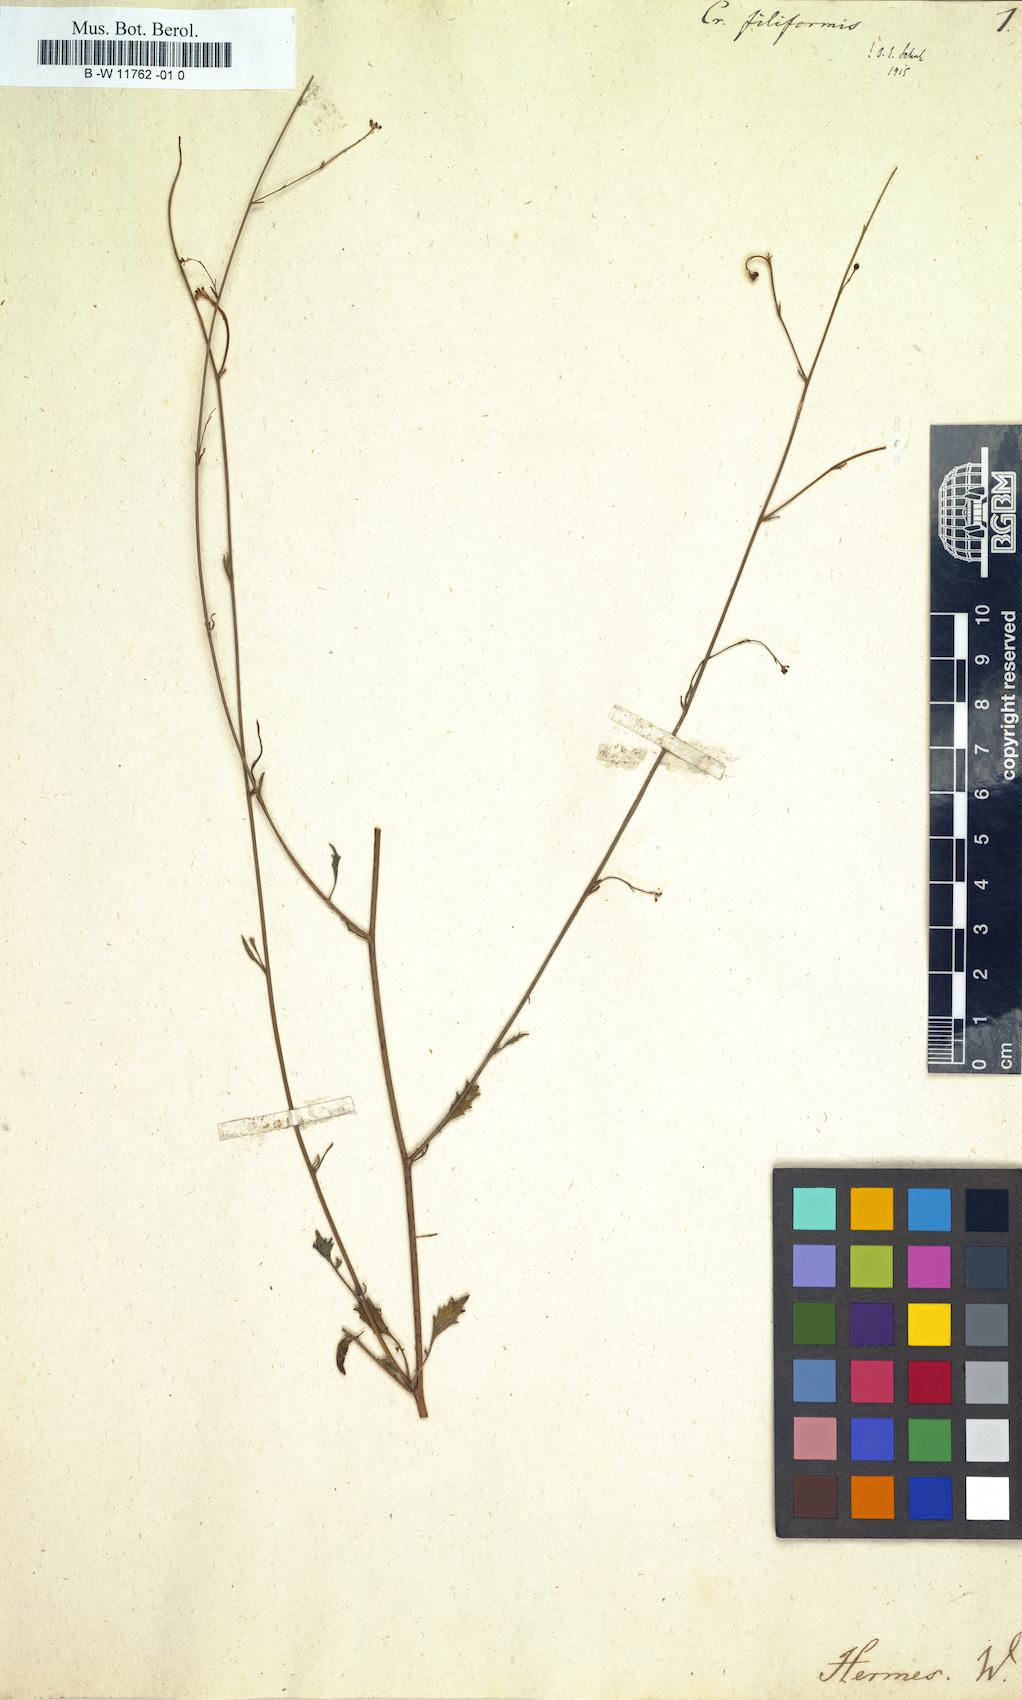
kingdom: Plantae
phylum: Tracheophyta
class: Magnoliopsida
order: Brassicales
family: Brassicaceae
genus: Crambe
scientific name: Crambe filiformis
